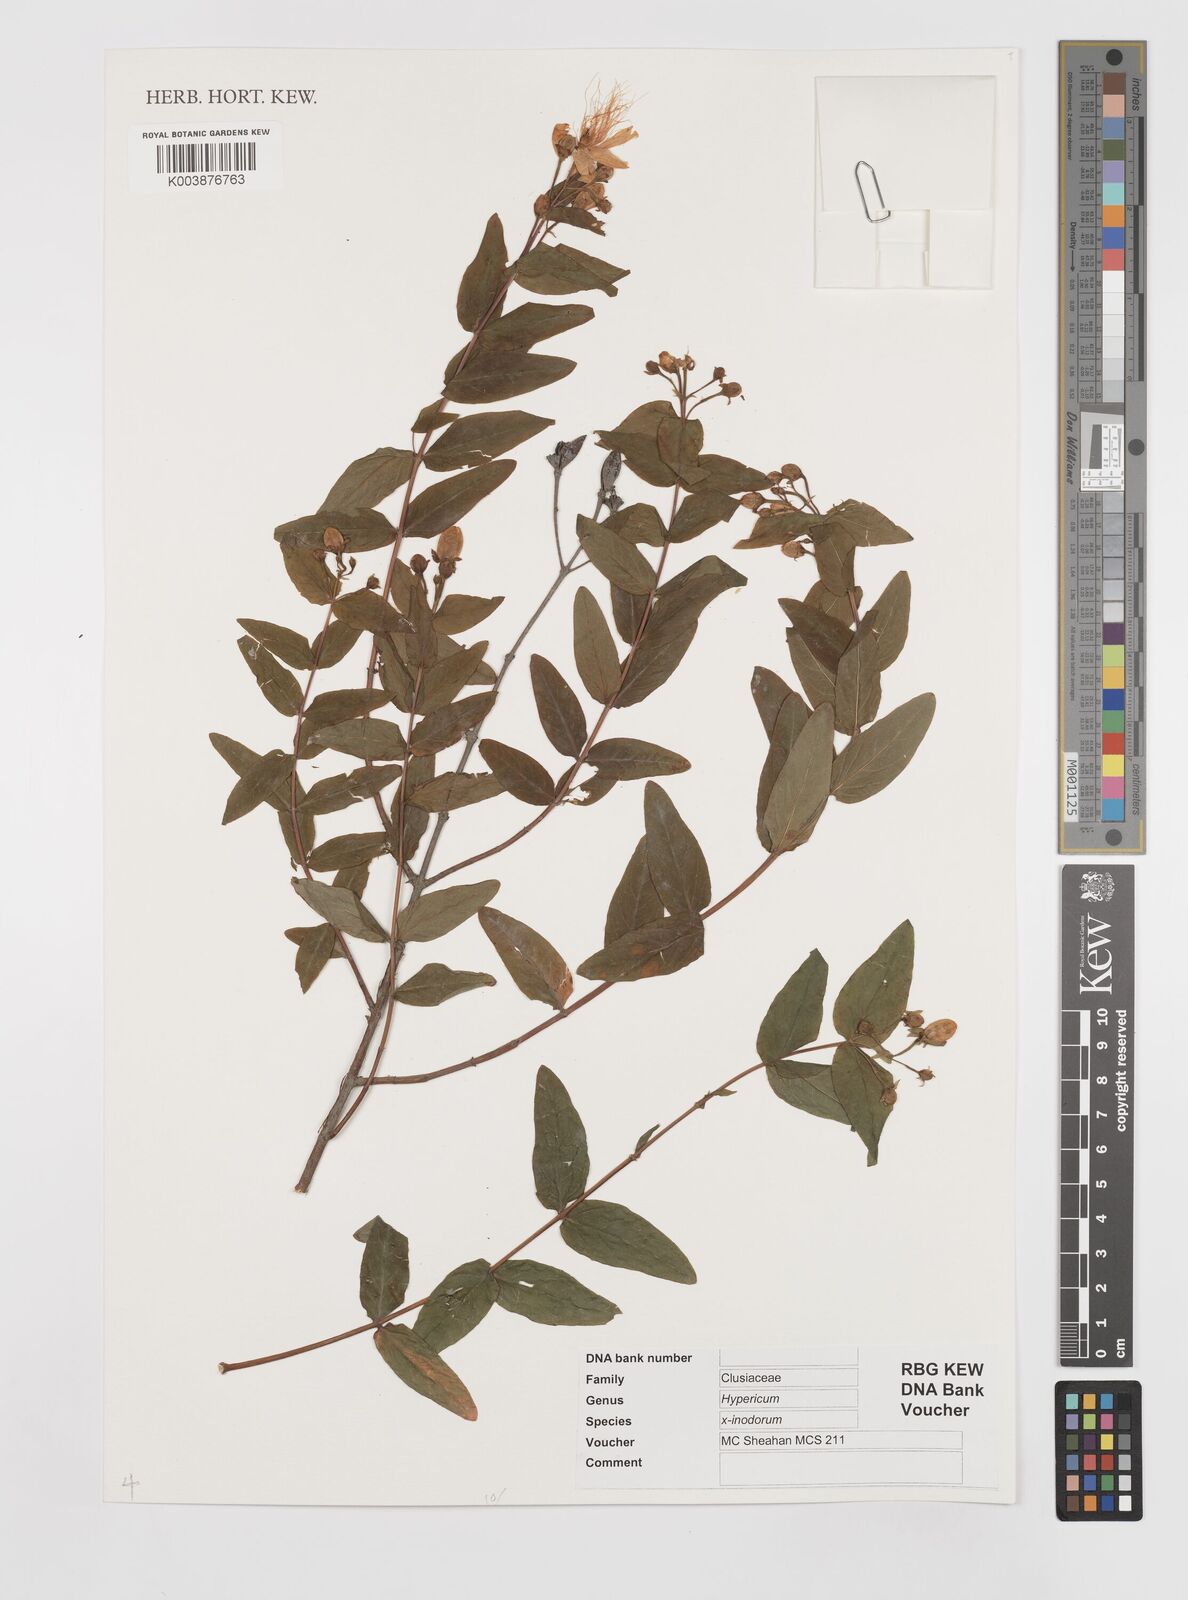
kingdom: Plantae
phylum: Tracheophyta
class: Magnoliopsida
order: Malpighiales
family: Hypericaceae
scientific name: Hypericaceae
